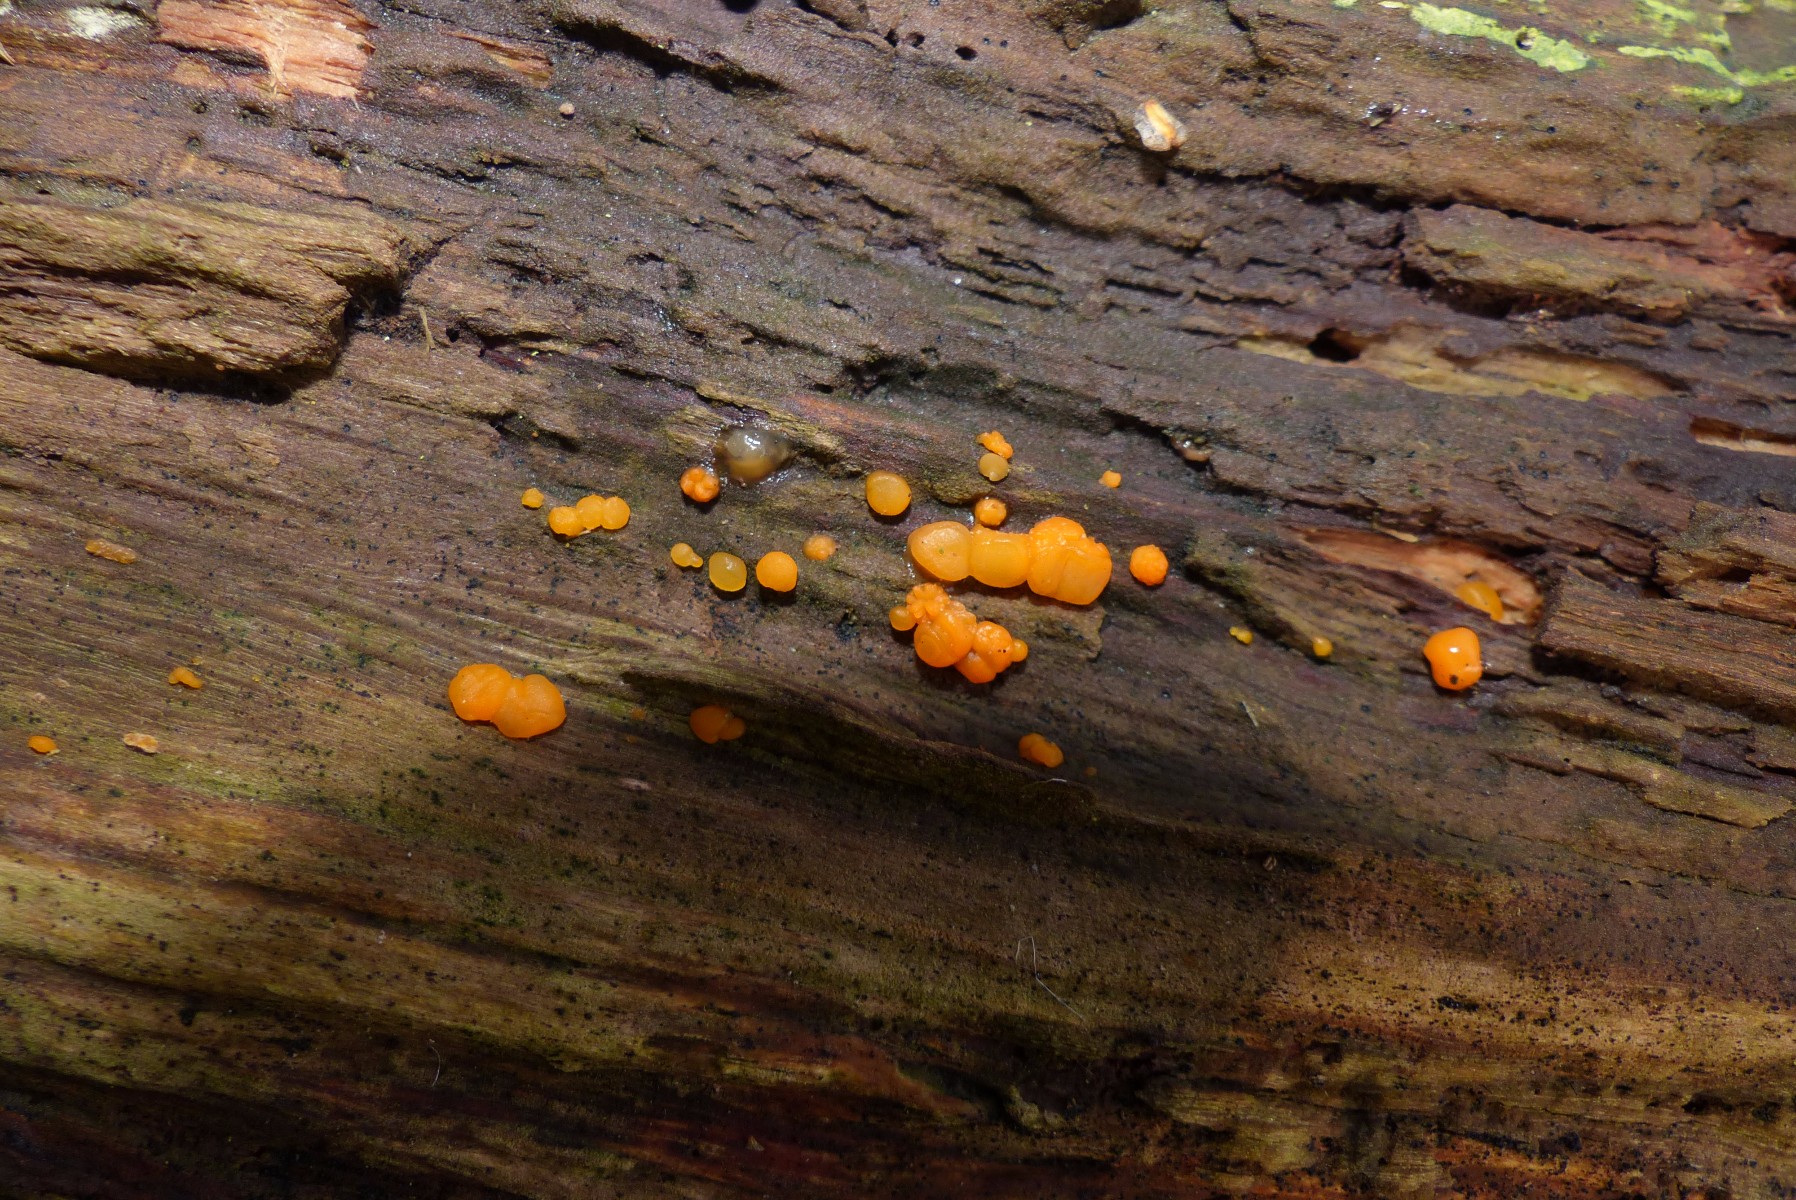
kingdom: Fungi
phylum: Basidiomycota
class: Dacrymycetes
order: Dacrymycetales
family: Dacrymycetaceae
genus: Dacrymyces
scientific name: Dacrymyces stillatus
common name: almindelig tåresvamp
